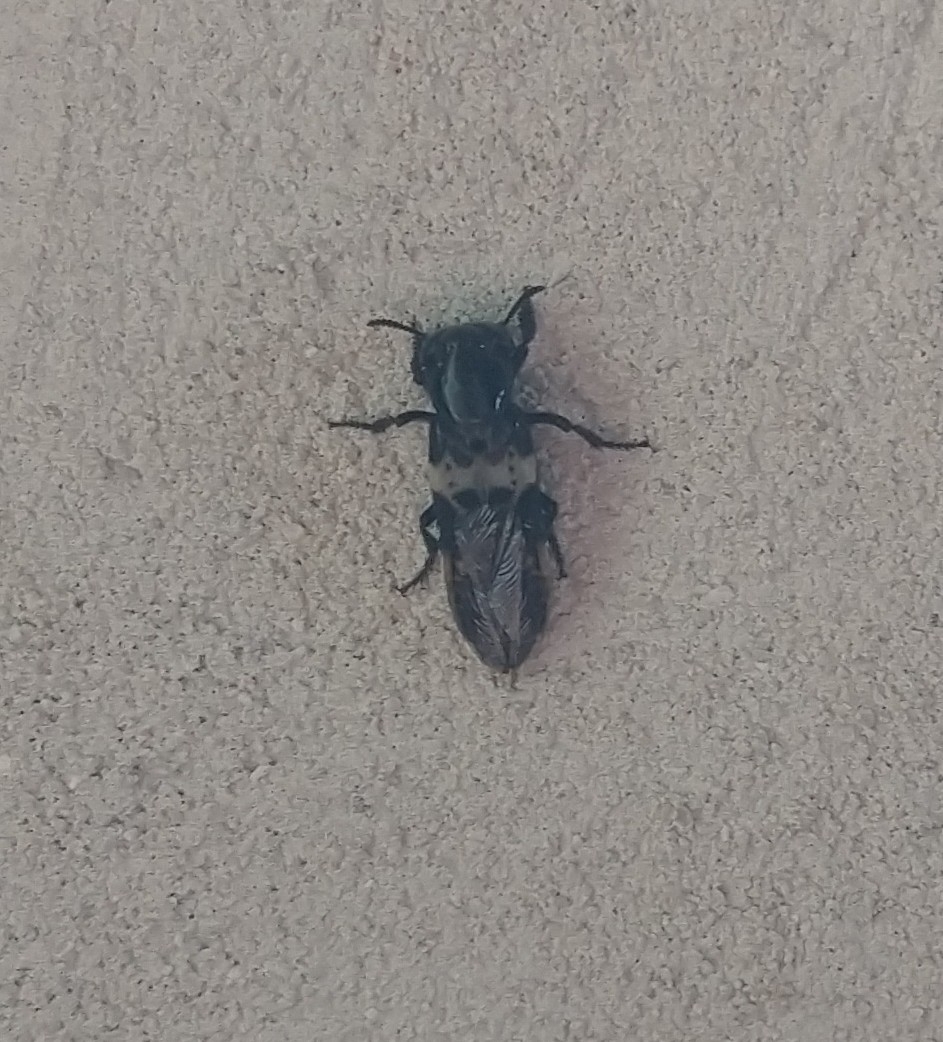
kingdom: Animalia
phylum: Arthropoda
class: Insecta
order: Coleoptera
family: Staphylinidae
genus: Creophilus
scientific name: Creophilus maxillosus
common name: Skrækrovbille
